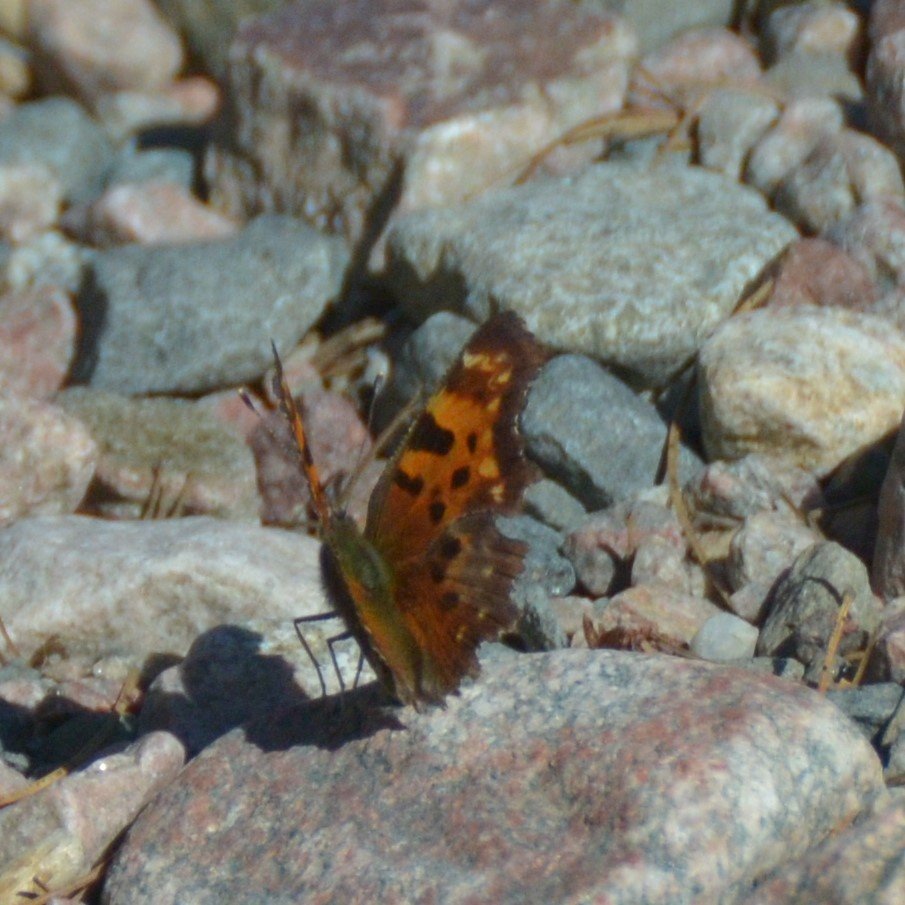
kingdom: Animalia
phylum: Arthropoda
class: Insecta
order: Lepidoptera
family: Nymphalidae
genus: Polygonia
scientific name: Polygonia faunus
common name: Green Comma
